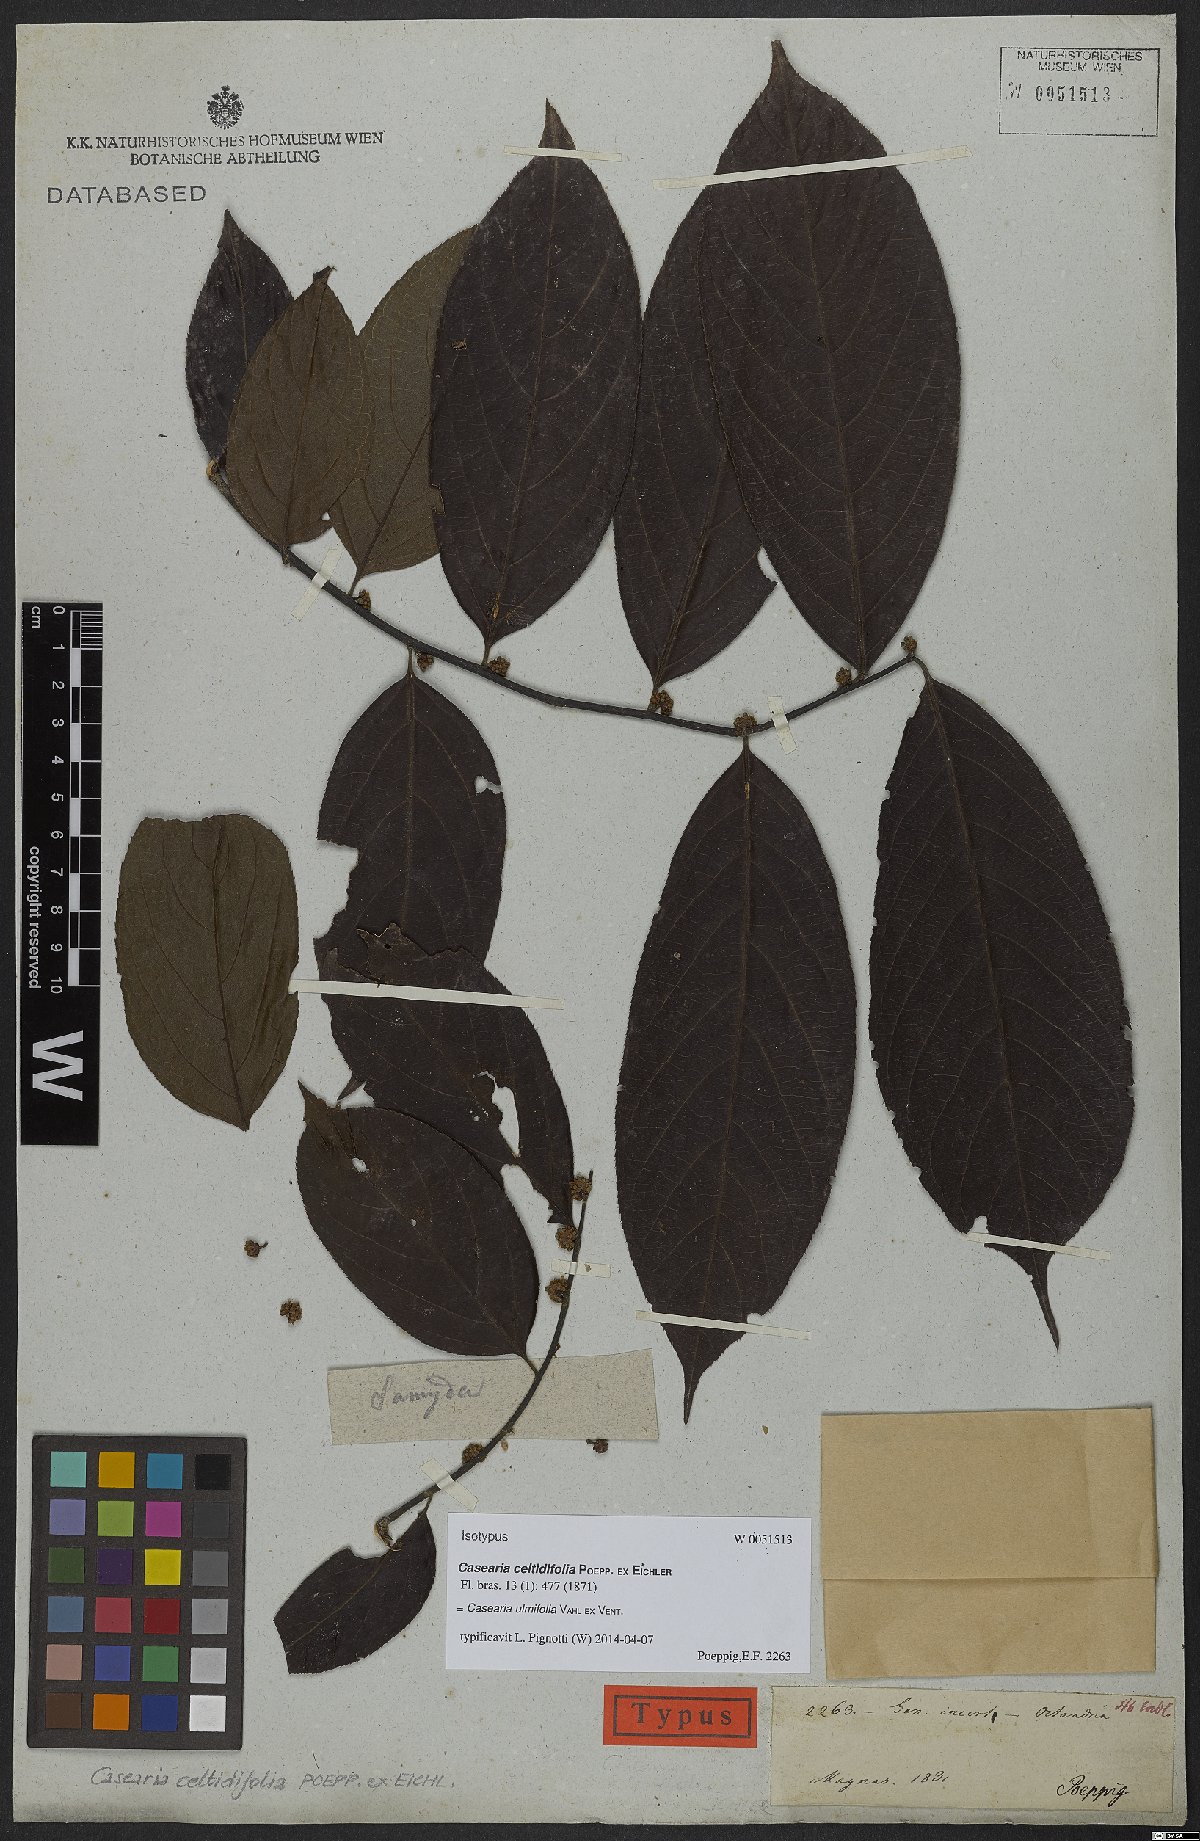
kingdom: Plantae
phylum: Tracheophyta
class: Magnoliopsida
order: Malpighiales
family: Salicaceae
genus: Casearia
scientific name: Casearia ulmifolia
